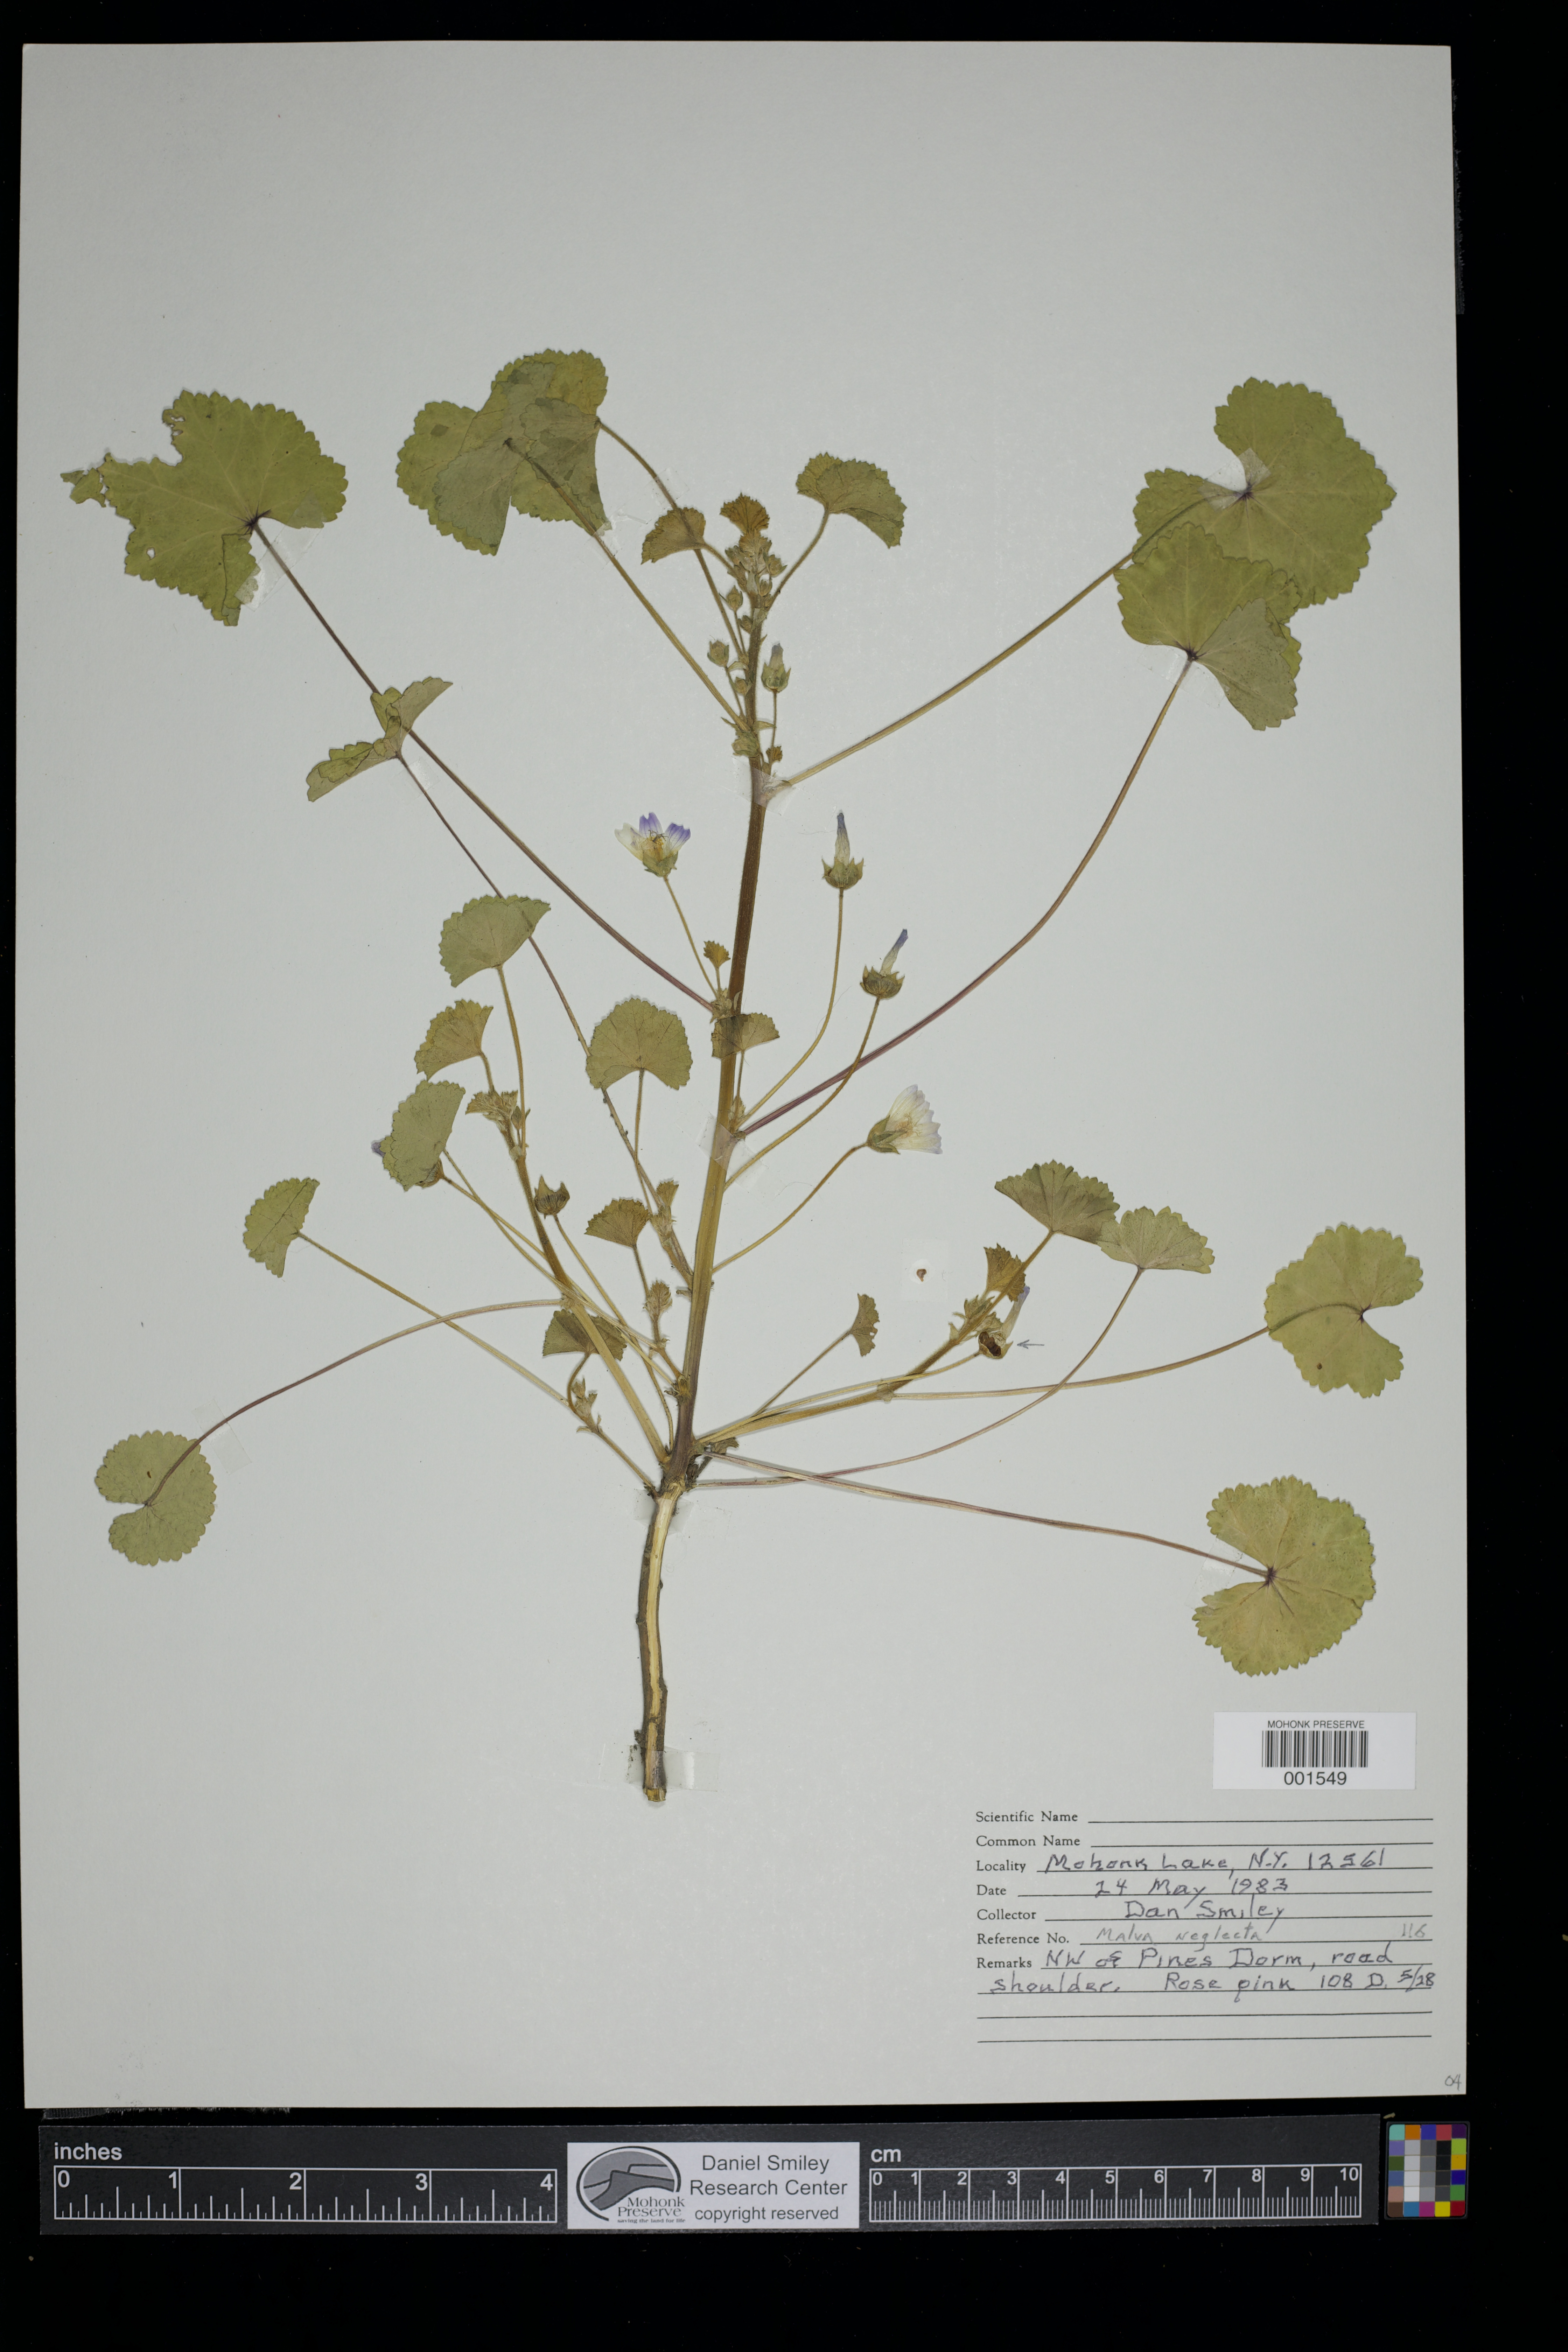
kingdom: Plantae
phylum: Tracheophyta
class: Magnoliopsida
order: Malvales
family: Malvaceae
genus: Malva
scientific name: Malva neglecta
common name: Common mallow
